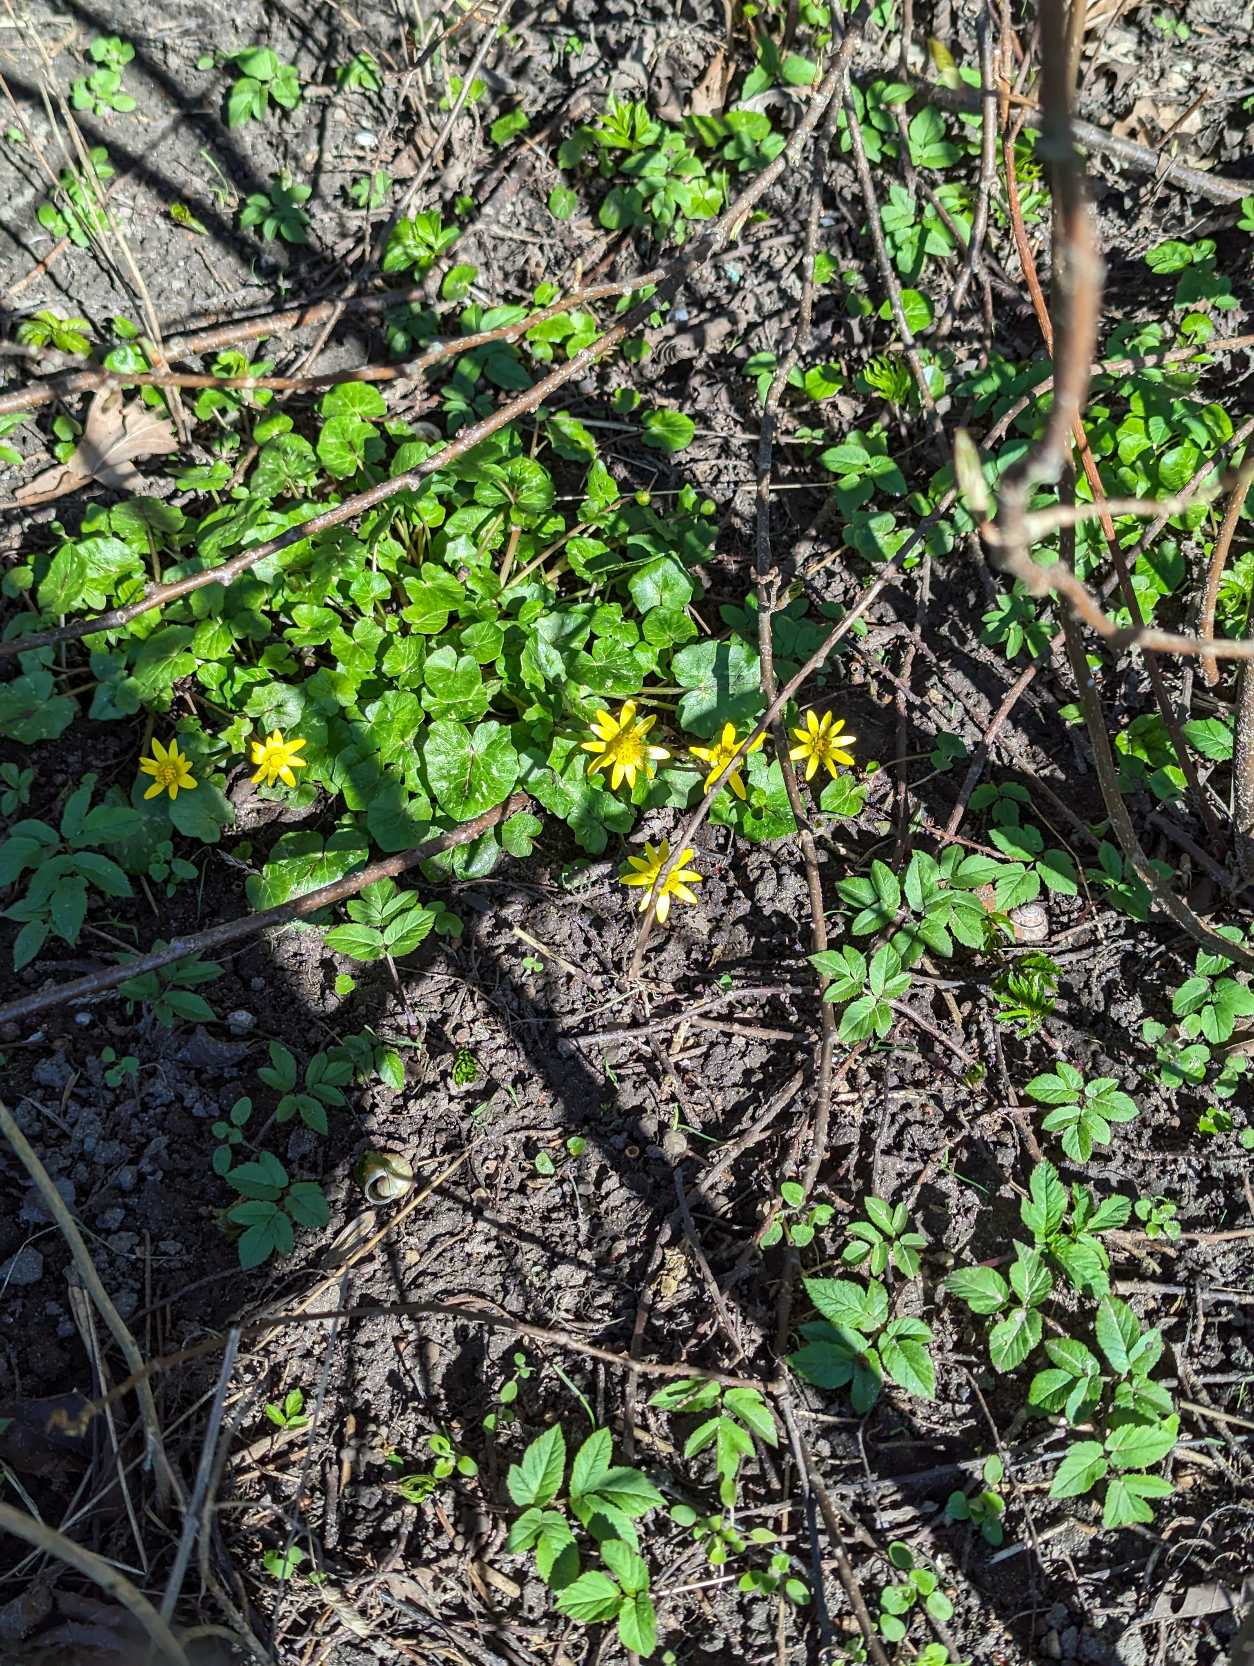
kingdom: Plantae
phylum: Tracheophyta
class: Magnoliopsida
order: Ranunculales
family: Ranunculaceae
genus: Ficaria
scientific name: Ficaria verna
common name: Vorterod
